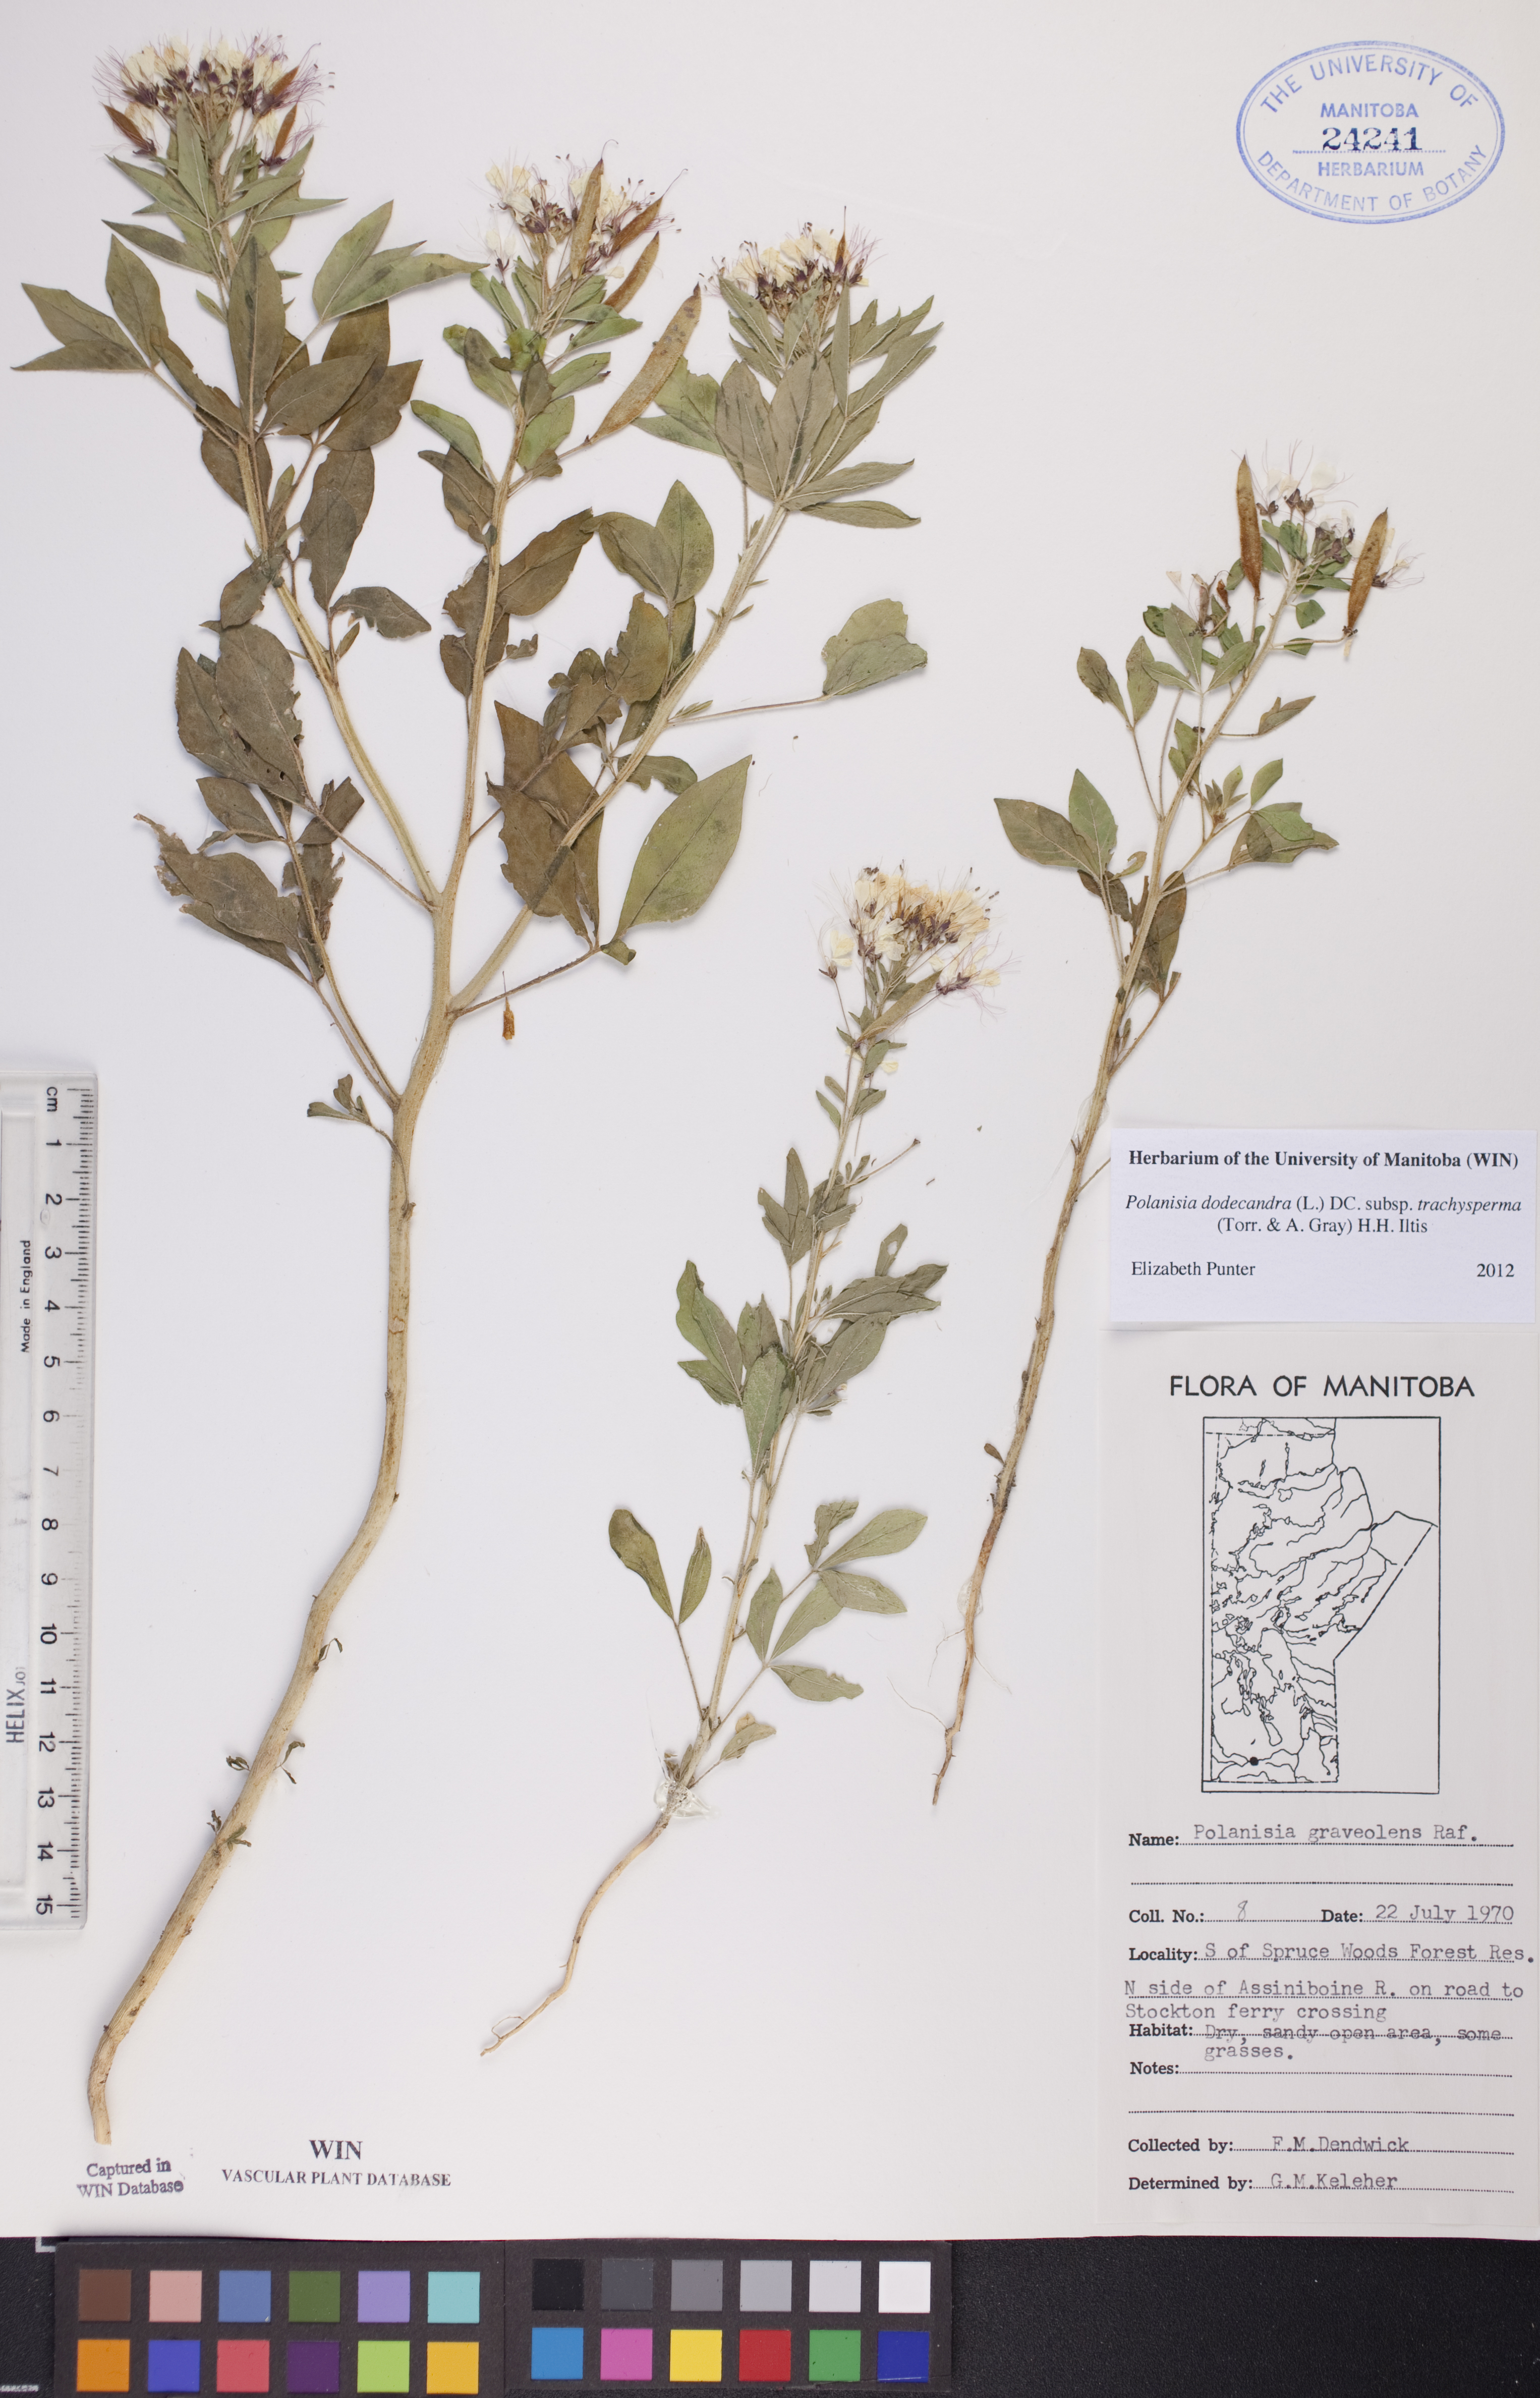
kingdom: Plantae
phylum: Tracheophyta
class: Magnoliopsida
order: Brassicales
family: Cleomaceae
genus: Polanisia
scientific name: Polanisia trachysperma
